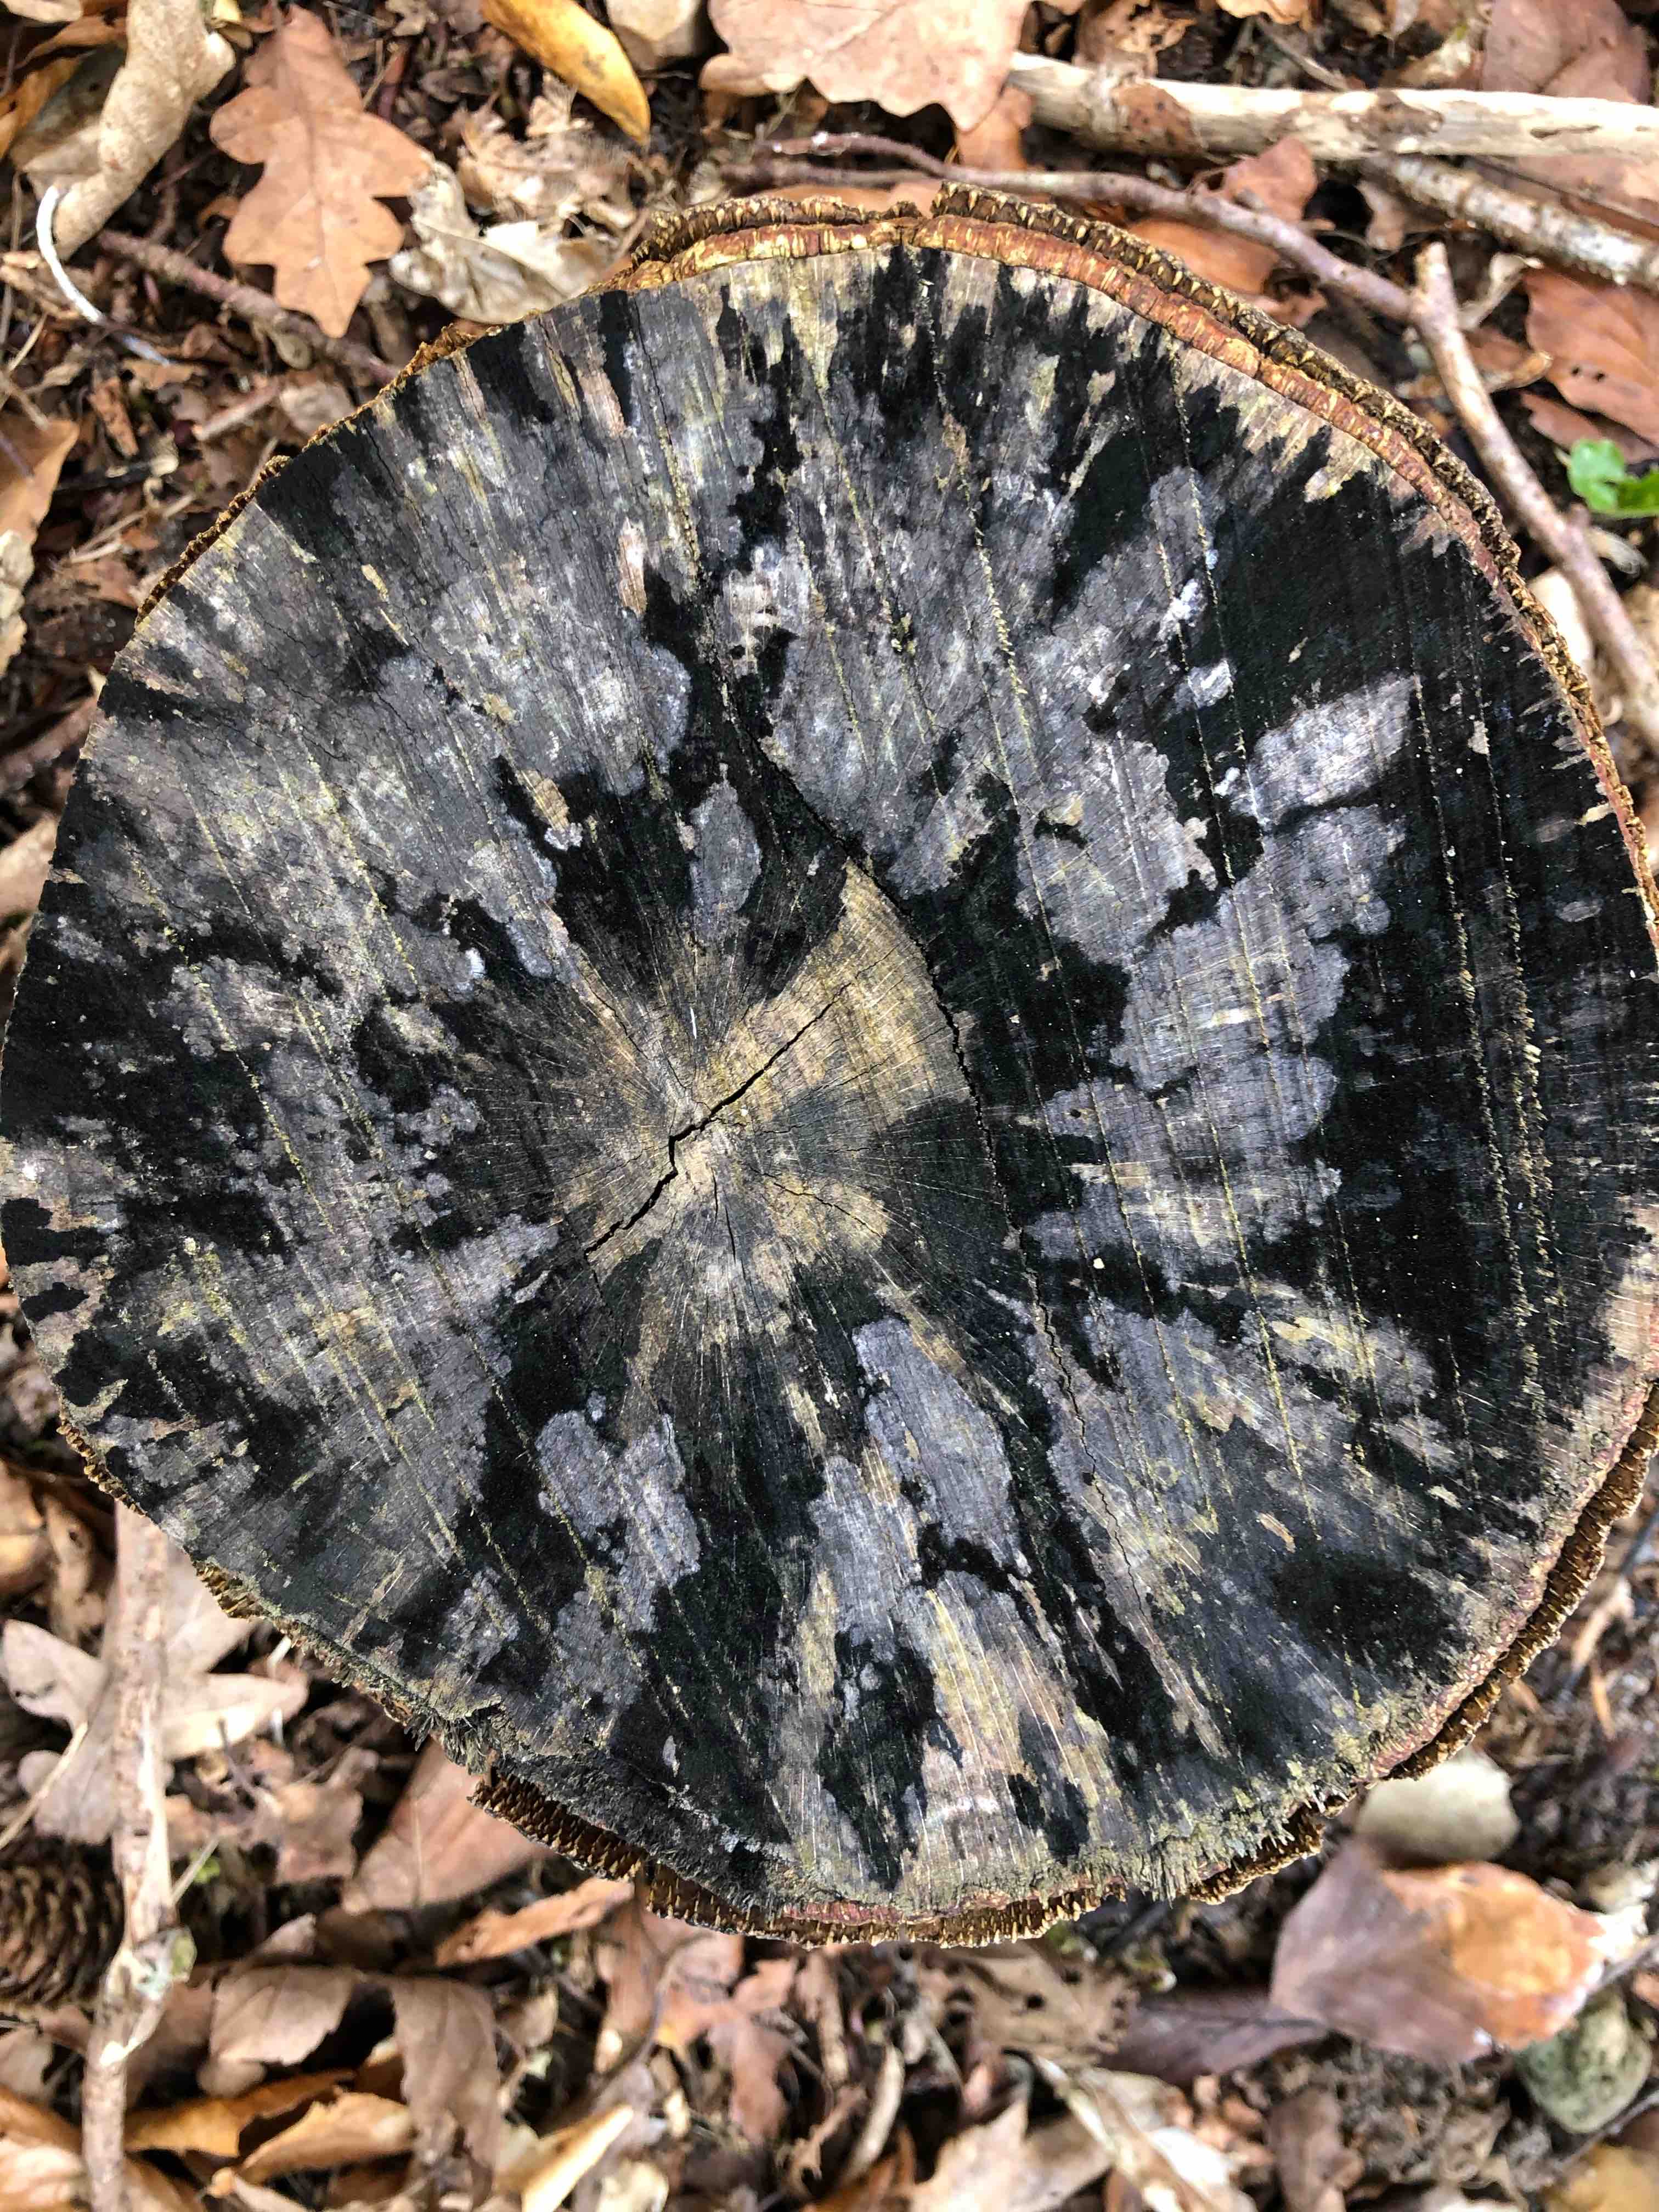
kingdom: Fungi
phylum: Ascomycota
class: Leotiomycetes
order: Helotiales
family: Helotiaceae
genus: Bispora
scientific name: Bispora pallescens
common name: måtte-snitskive
